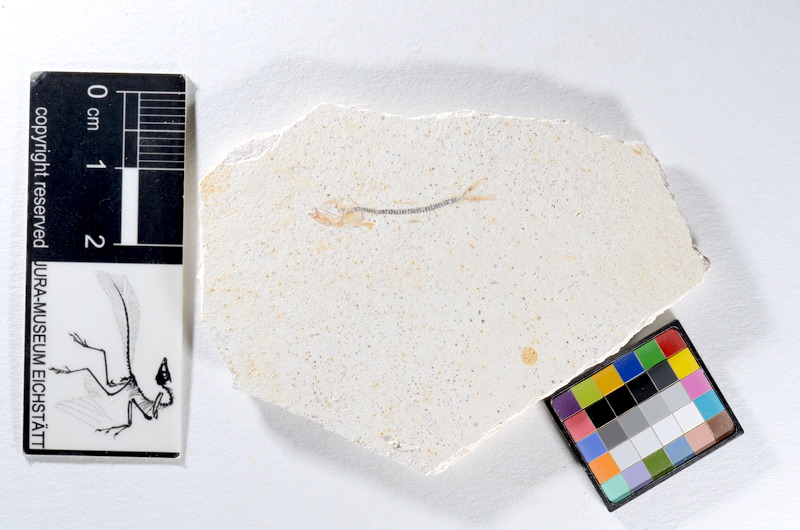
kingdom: Animalia
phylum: Chordata
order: Salmoniformes
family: Orthogonikleithridae
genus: Orthogonikleithrus
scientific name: Orthogonikleithrus hoelli
